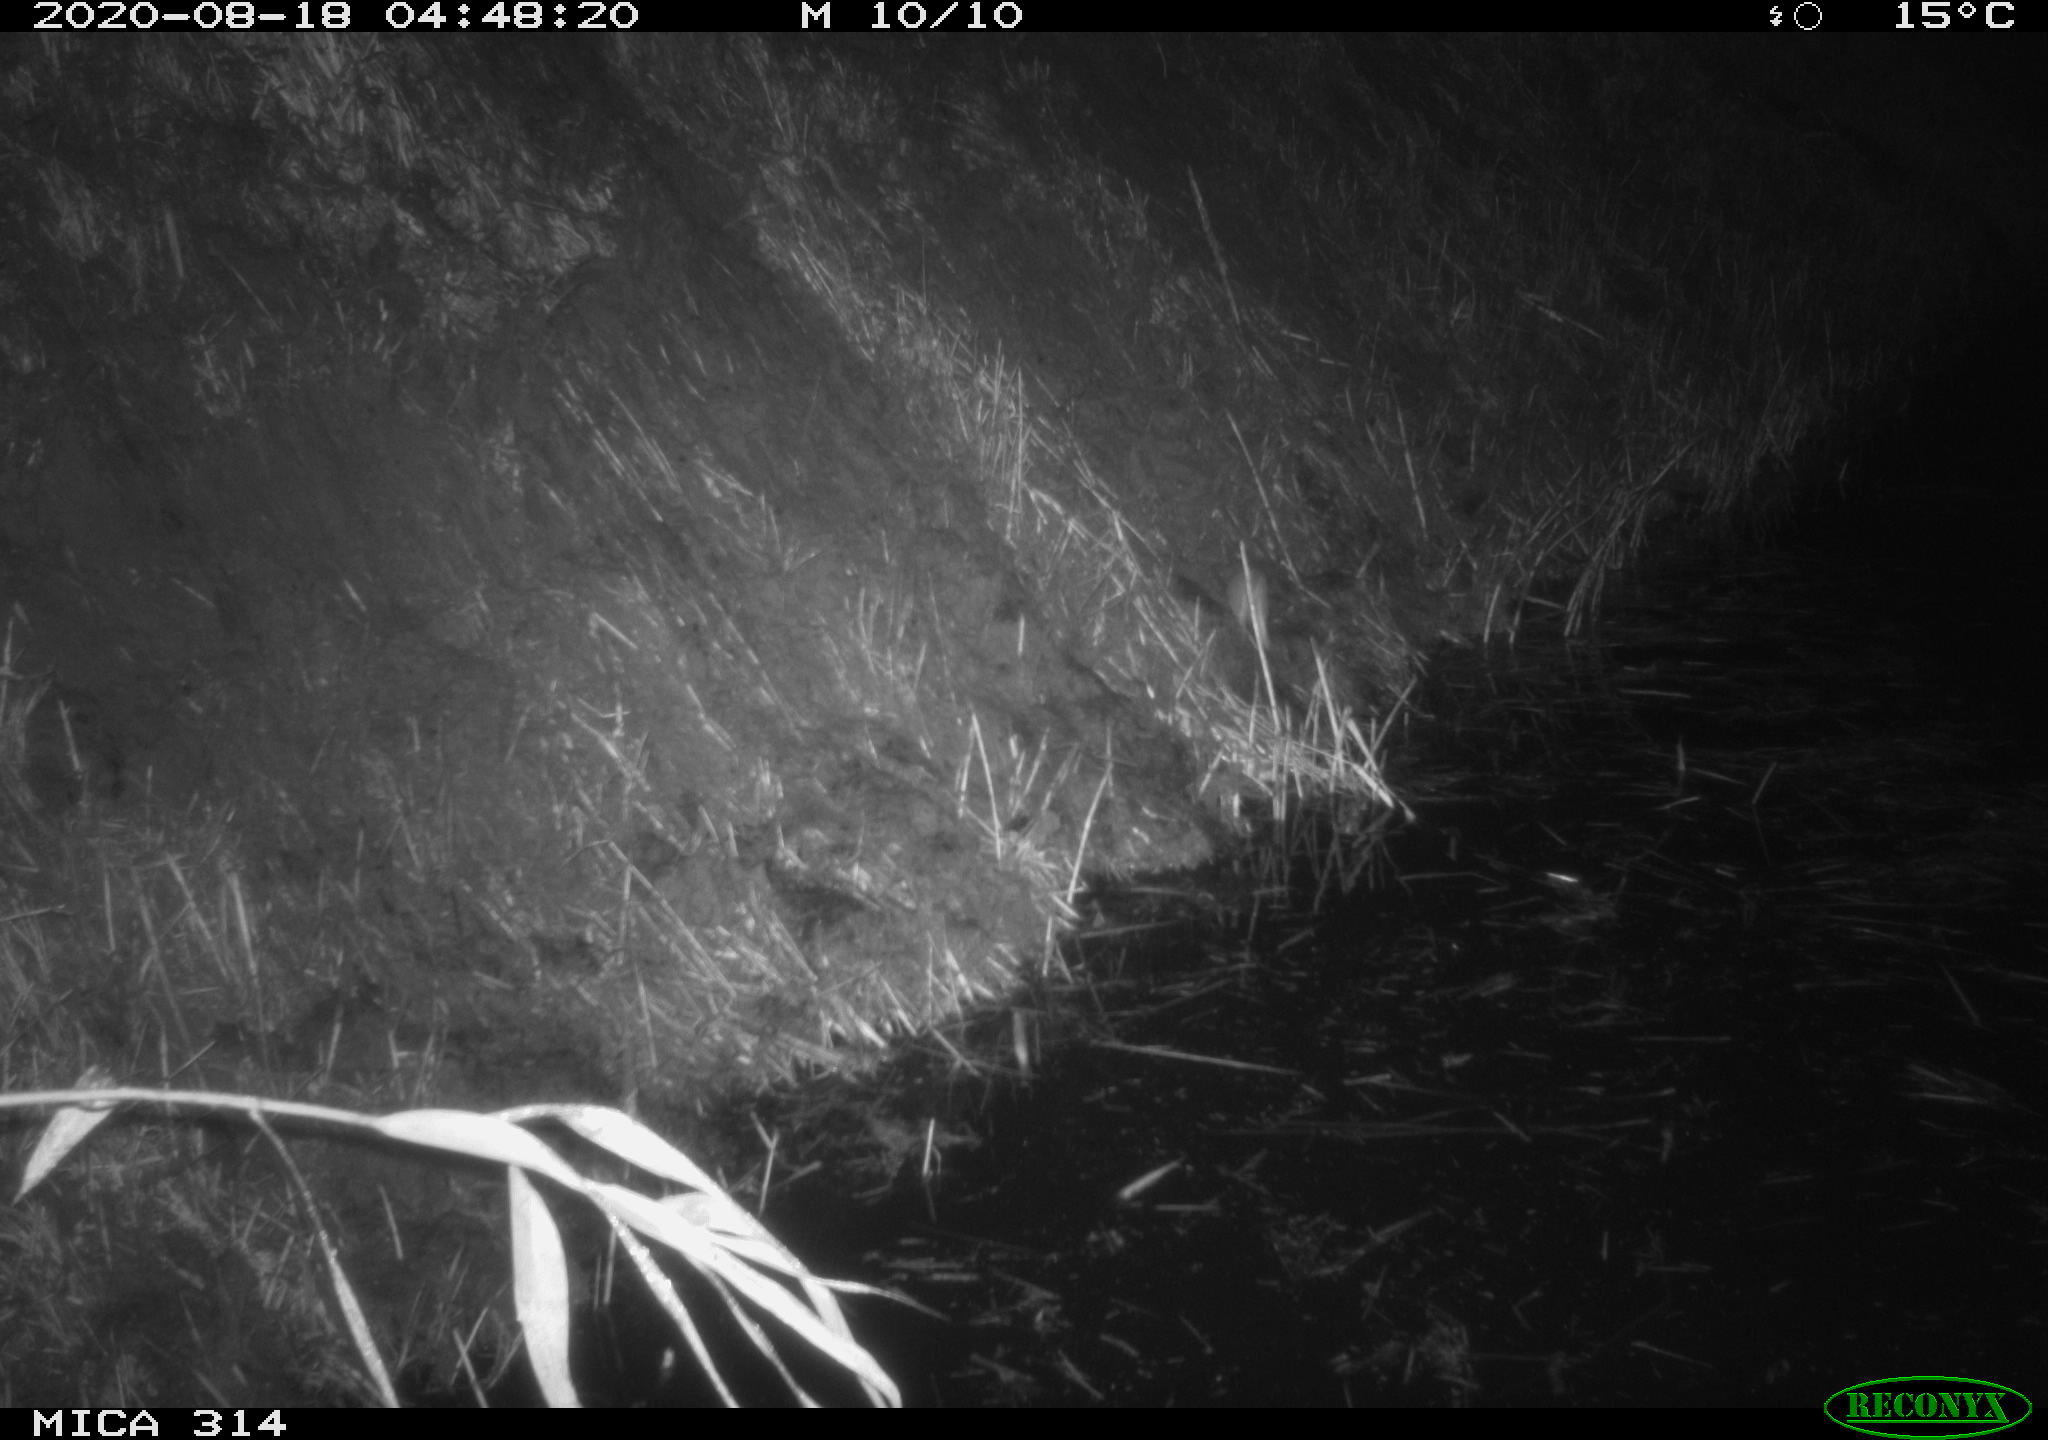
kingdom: Animalia
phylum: Chordata
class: Mammalia
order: Rodentia
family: Muridae
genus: Rattus
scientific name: Rattus norvegicus
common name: Brown rat
